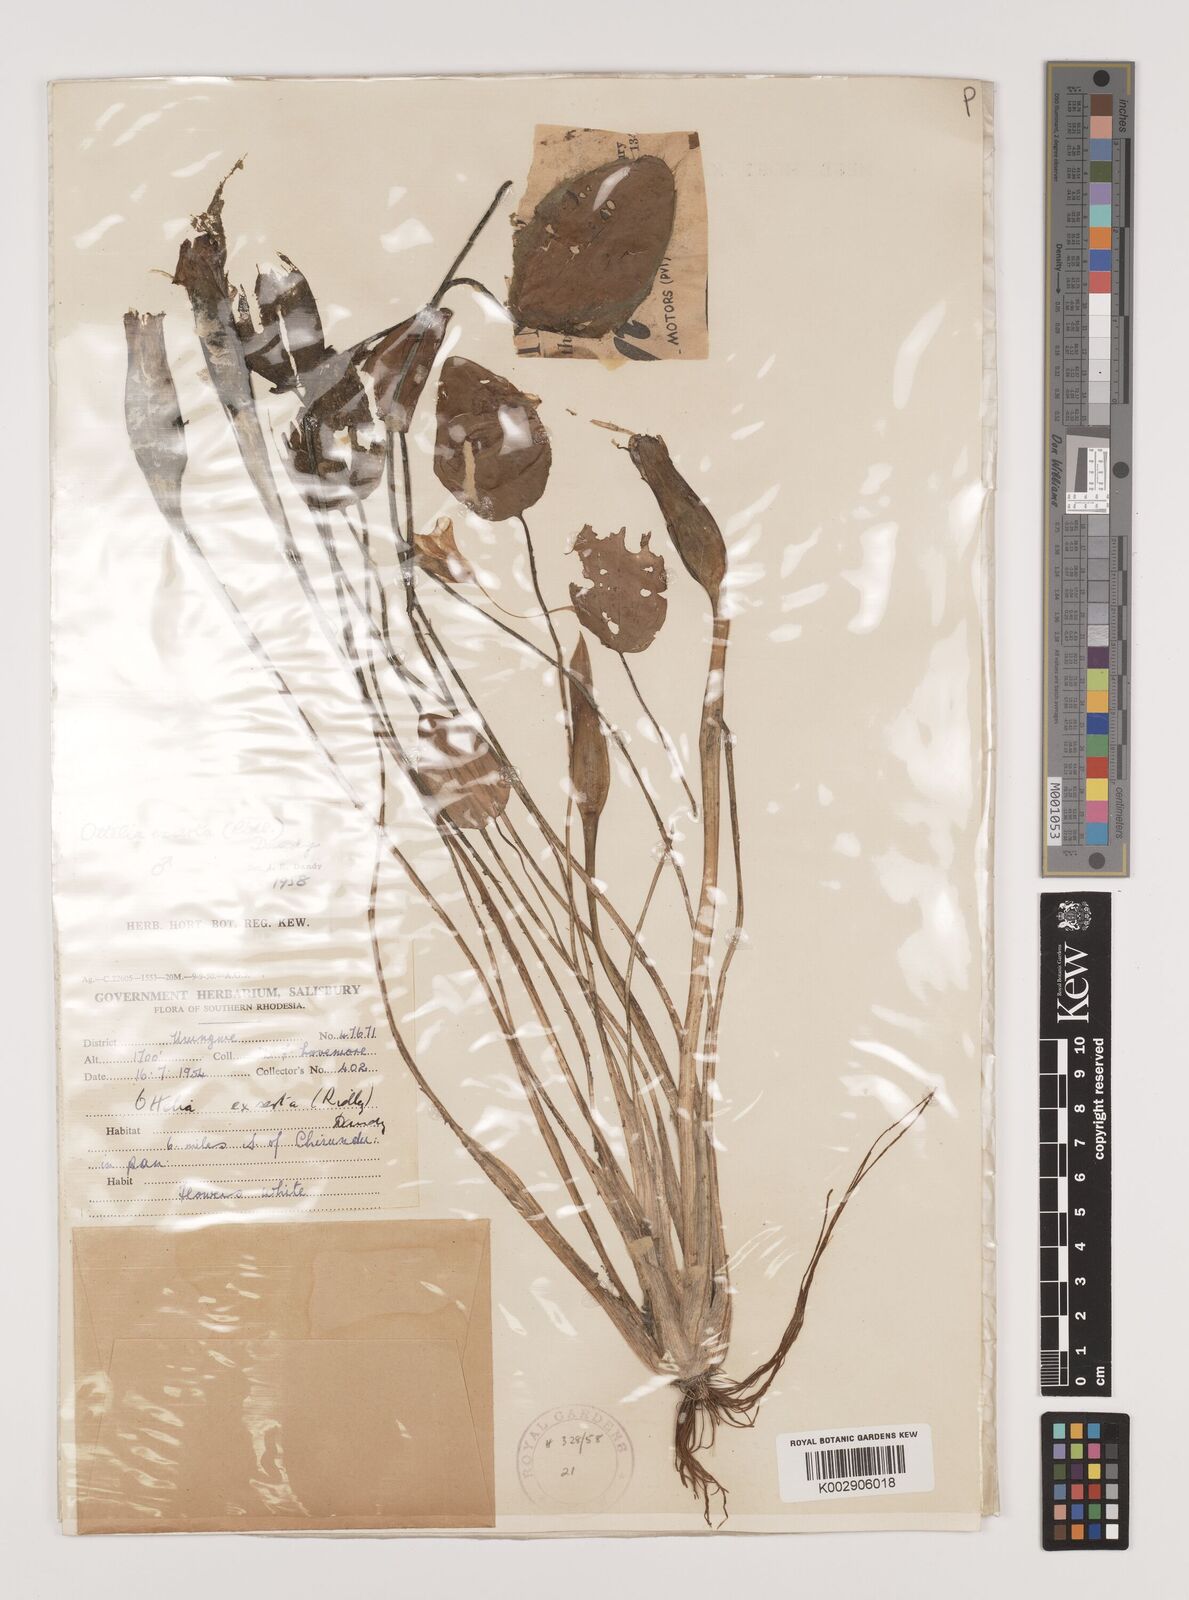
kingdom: Plantae
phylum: Tracheophyta
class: Liliopsida
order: Alismatales
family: Hydrocharitaceae
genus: Ottelia
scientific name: Ottelia exserta
